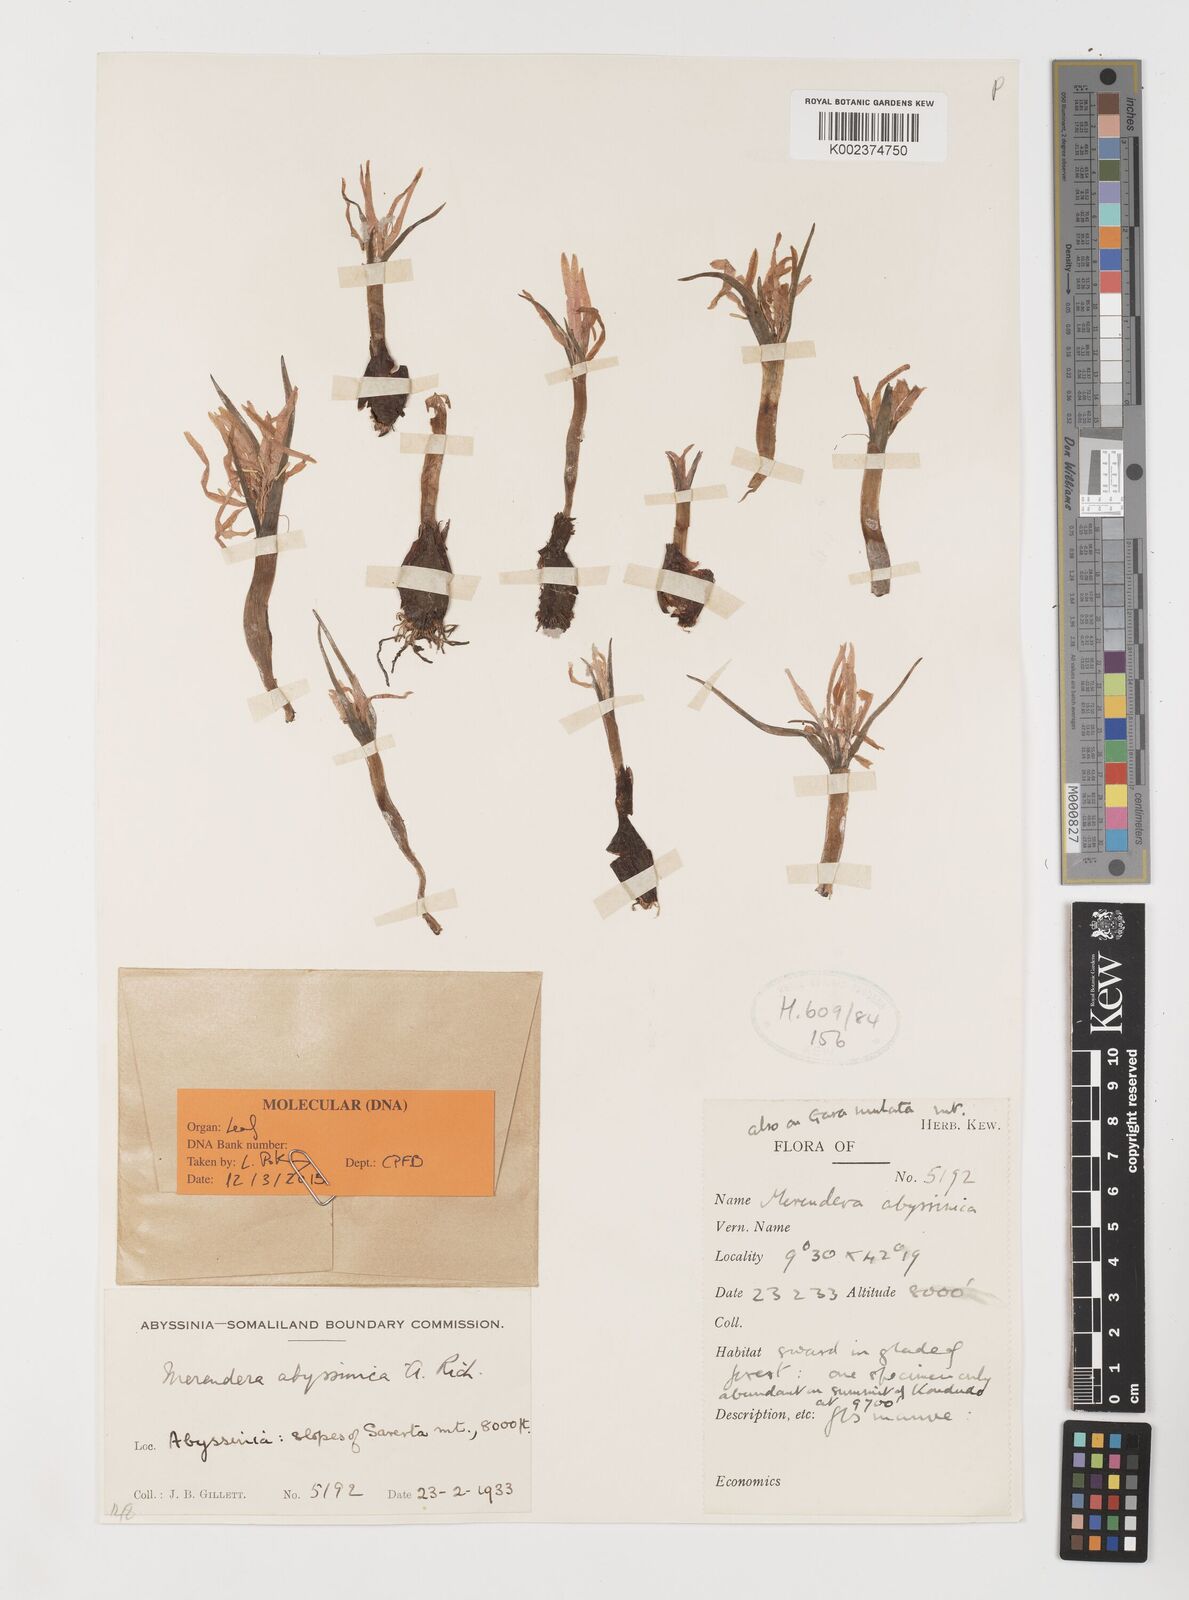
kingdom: Plantae
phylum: Tracheophyta
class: Liliopsida
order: Liliales
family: Colchicaceae
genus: Colchicum
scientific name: Colchicum
